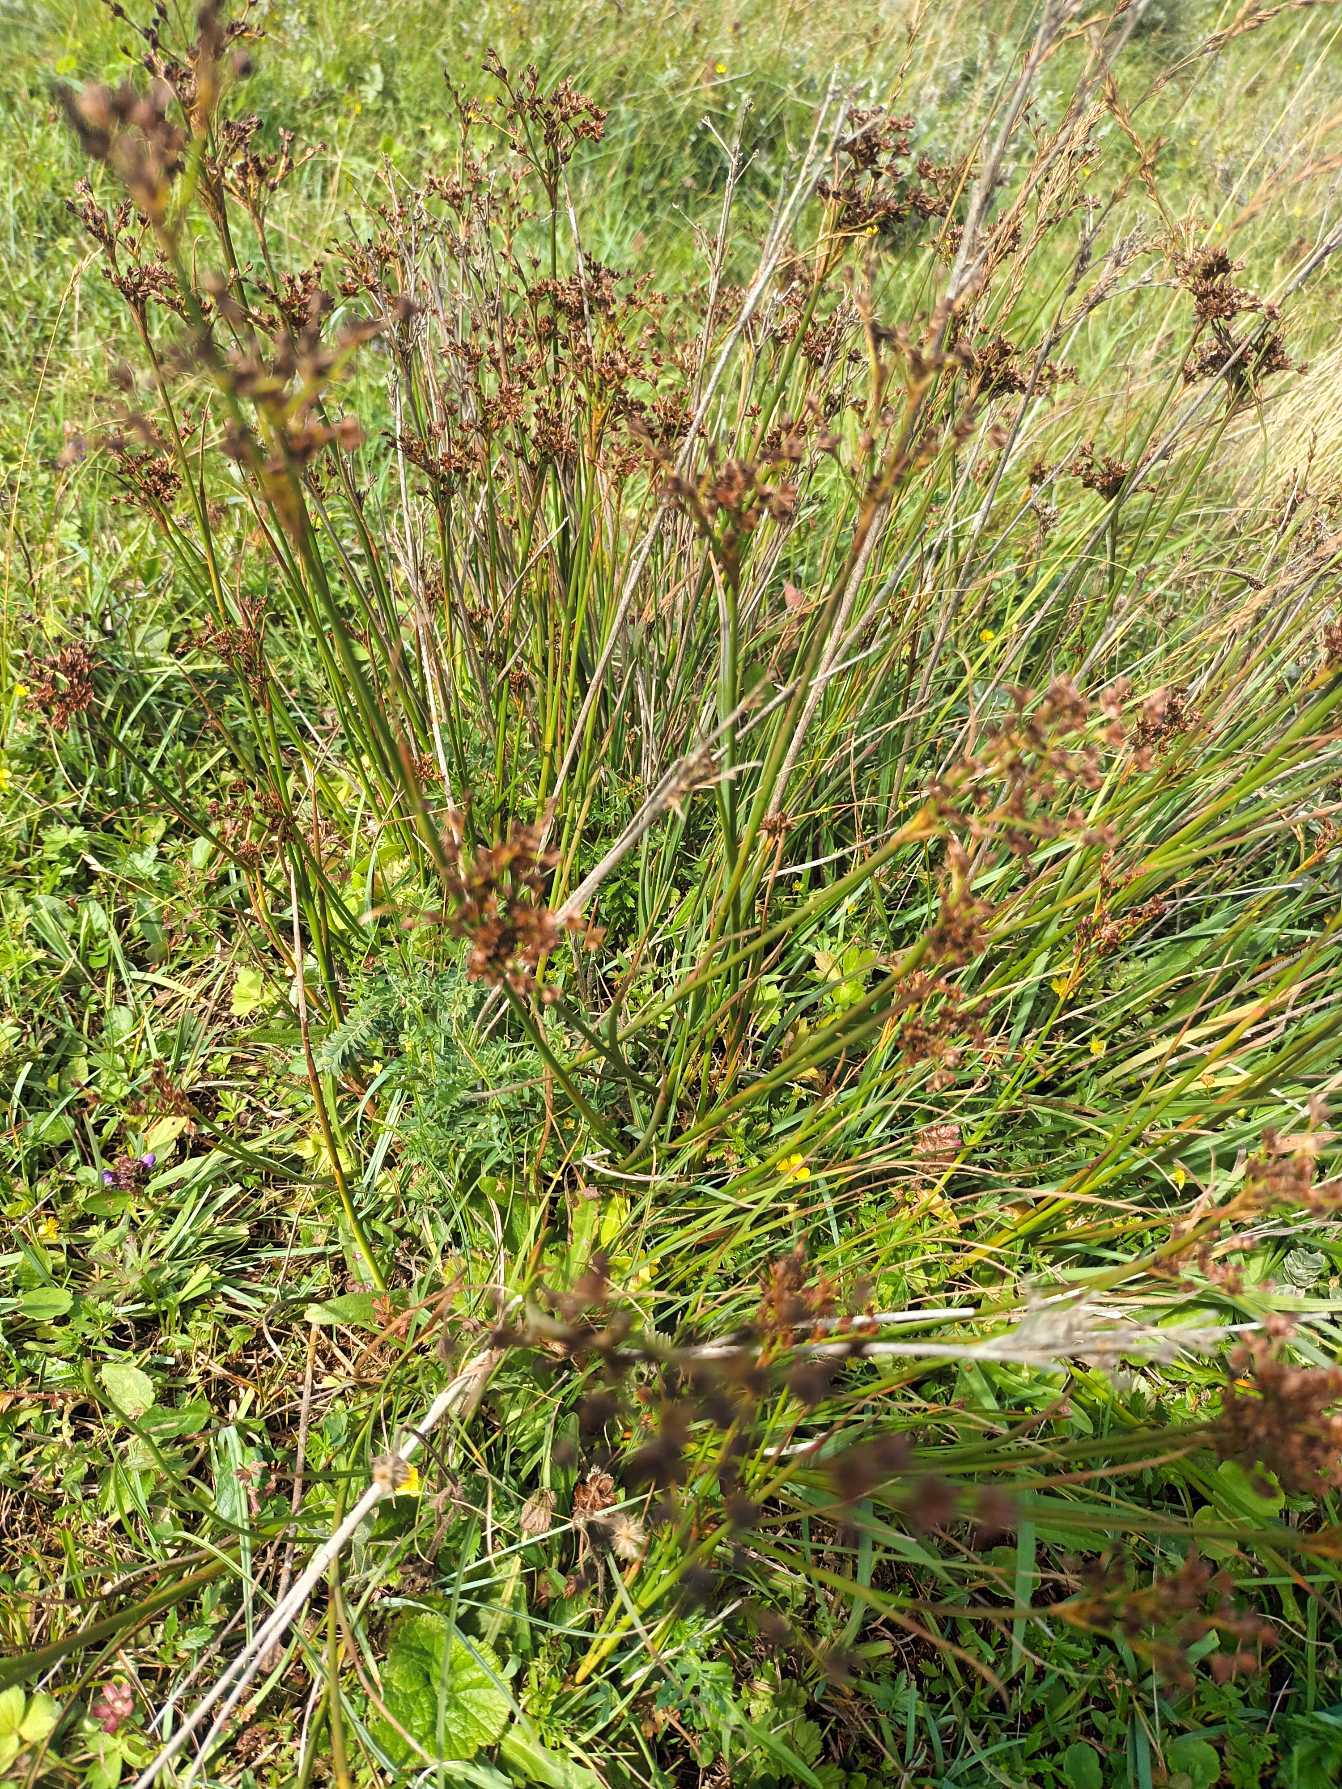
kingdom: Plantae
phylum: Tracheophyta
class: Liliopsida
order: Poales
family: Juncaceae
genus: Juncus
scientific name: Juncus anceps
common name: Sand-siv
